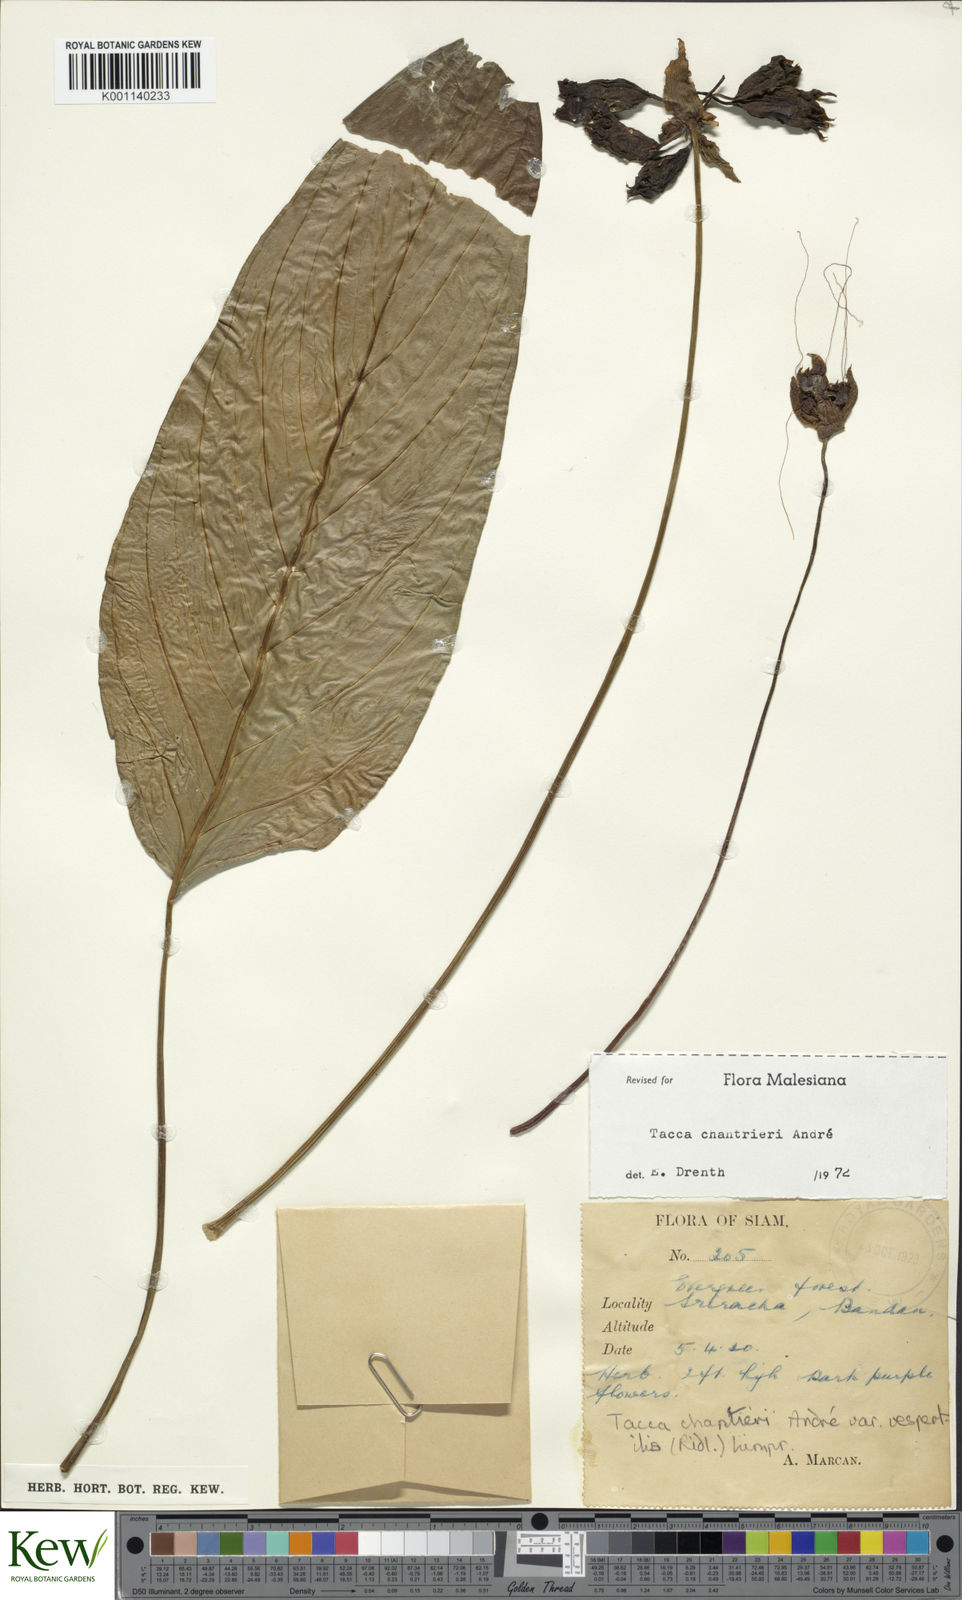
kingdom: Plantae
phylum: Tracheophyta
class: Liliopsida
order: Dioscoreales
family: Dioscoreaceae
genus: Tacca
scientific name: Tacca
